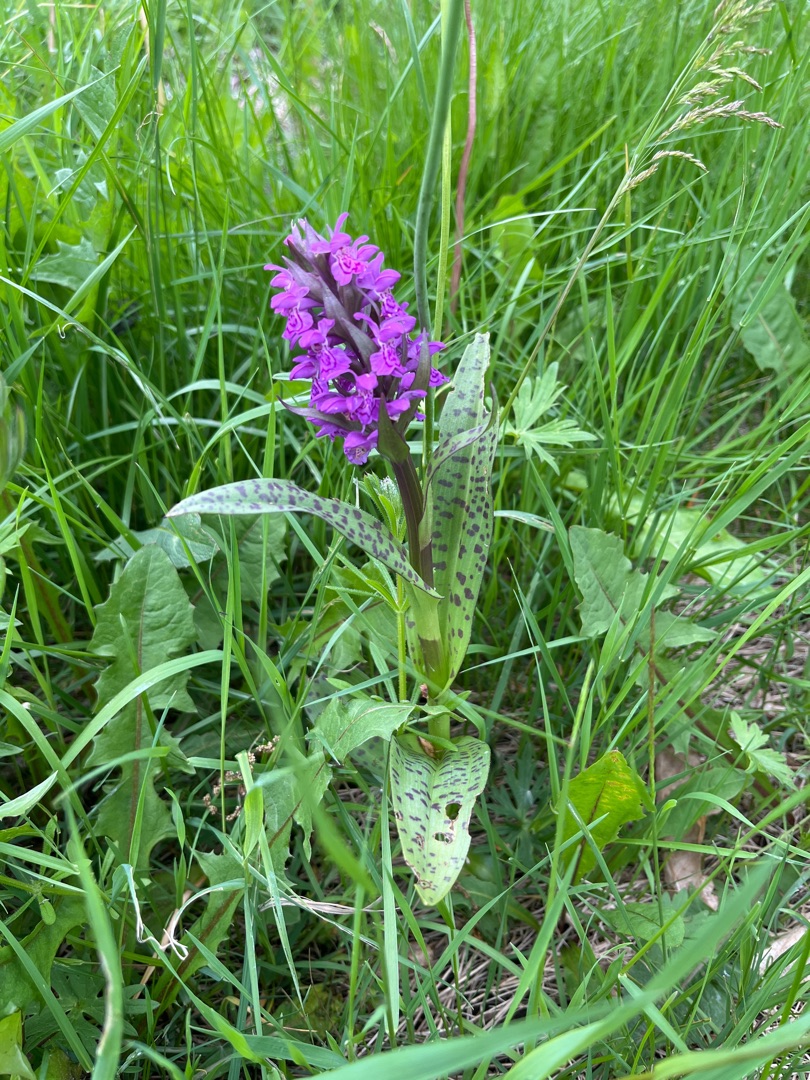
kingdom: Plantae
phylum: Tracheophyta
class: Liliopsida
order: Asparagales
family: Orchidaceae
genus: Dactylorhiza
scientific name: Dactylorhiza majalis
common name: Maj-gøgeurt
